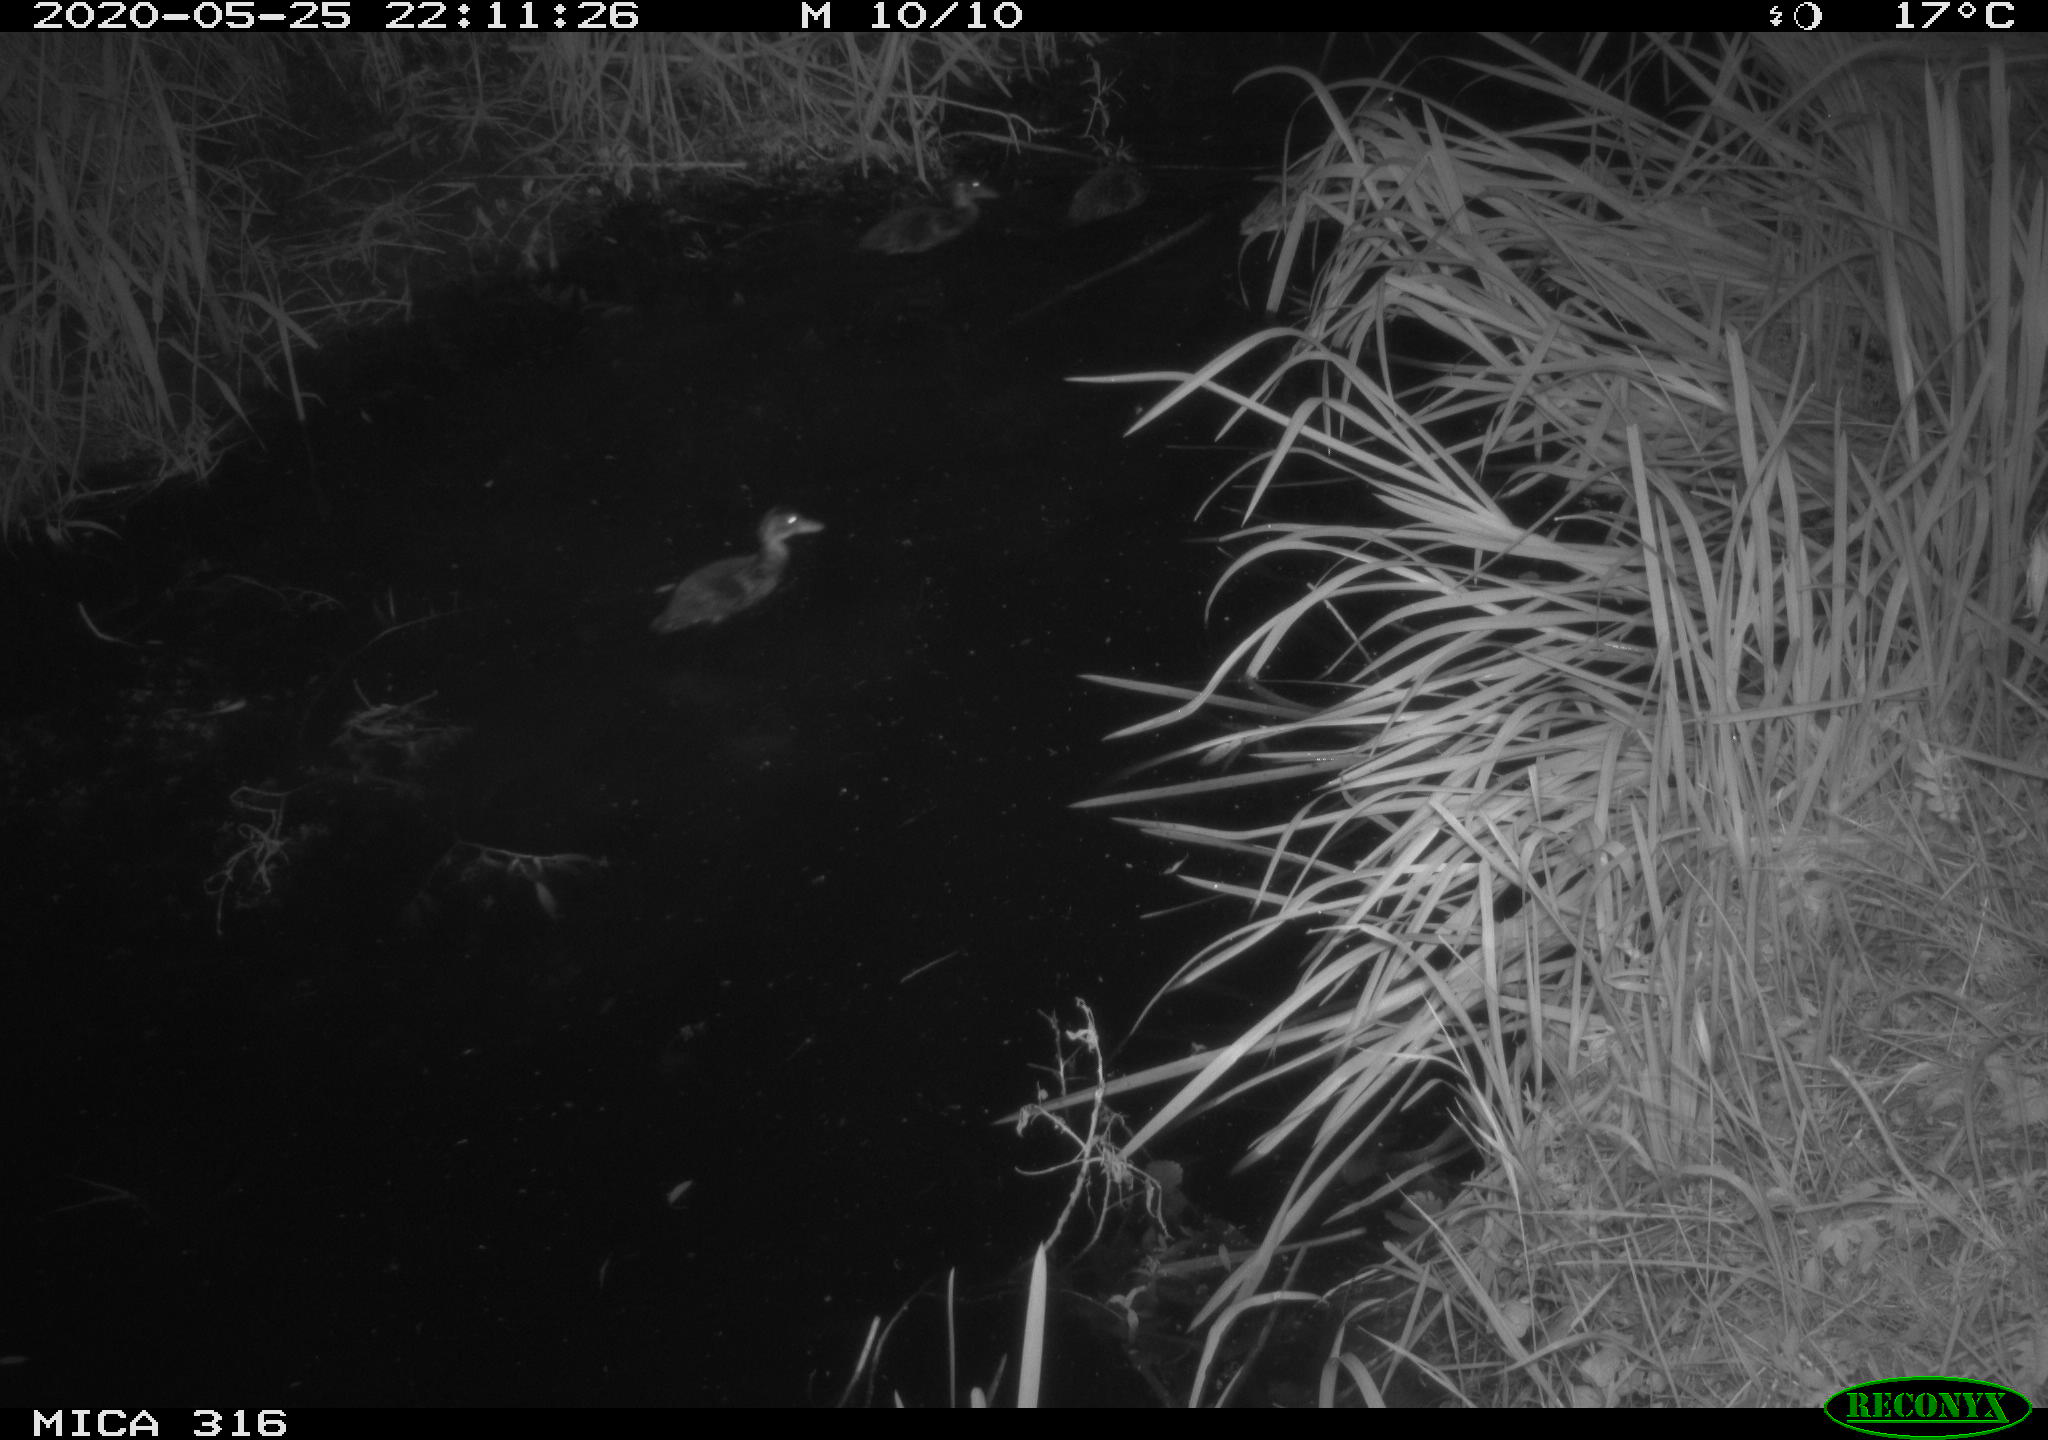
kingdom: Animalia
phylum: Chordata
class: Aves
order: Anseriformes
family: Anatidae
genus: Anas
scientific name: Anas platyrhynchos
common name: Mallard
